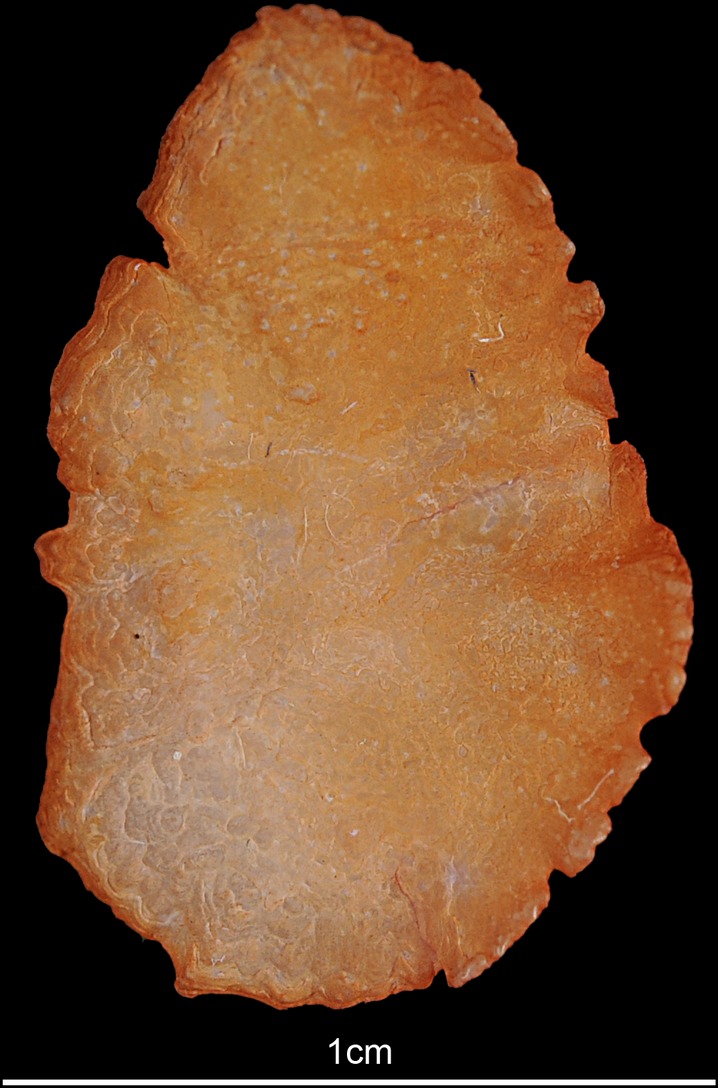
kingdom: Animalia
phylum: Chordata
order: Perciformes
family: Cichlidae
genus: Oreochromis
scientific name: Oreochromis niloticus
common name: Nile tilapia
